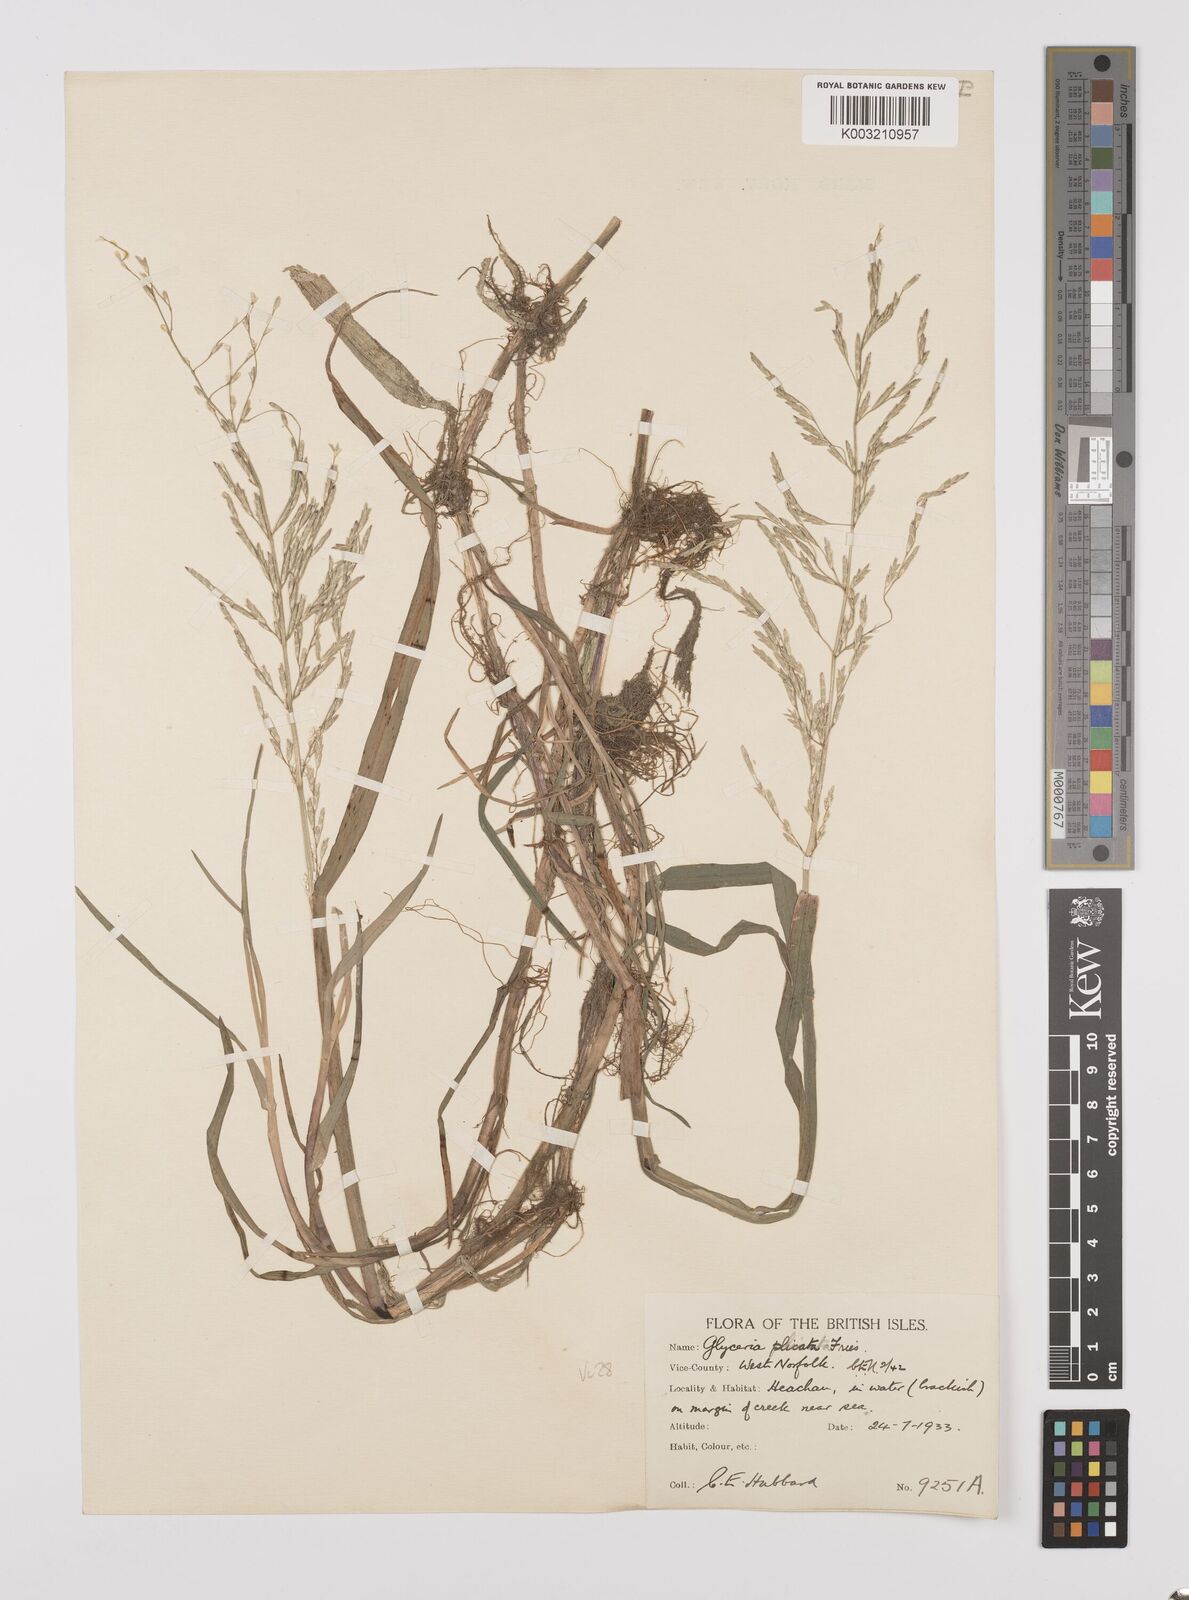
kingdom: Plantae
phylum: Tracheophyta
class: Liliopsida
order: Poales
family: Poaceae
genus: Glyceria
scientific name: Glyceria notata
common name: Plicate sweet-grass
